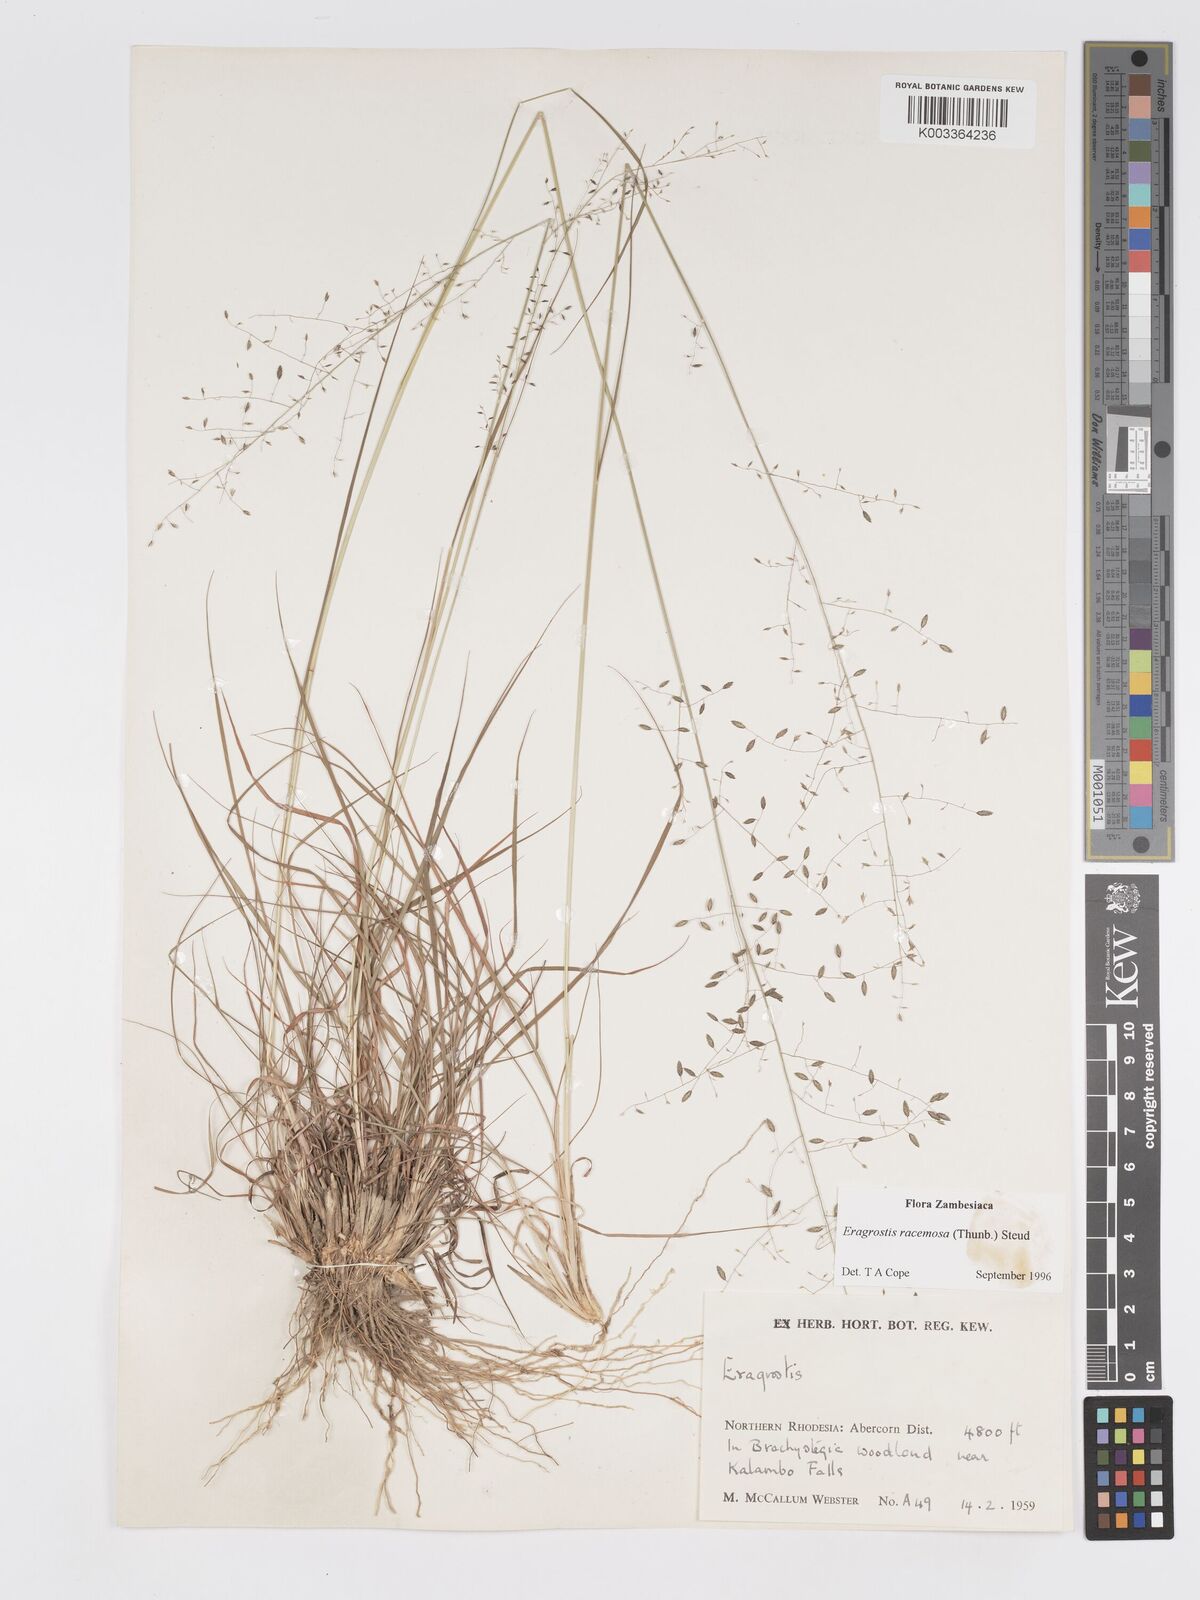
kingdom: Plantae
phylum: Tracheophyta
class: Liliopsida
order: Poales
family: Poaceae
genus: Eragrostis
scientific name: Eragrostis racemosa
